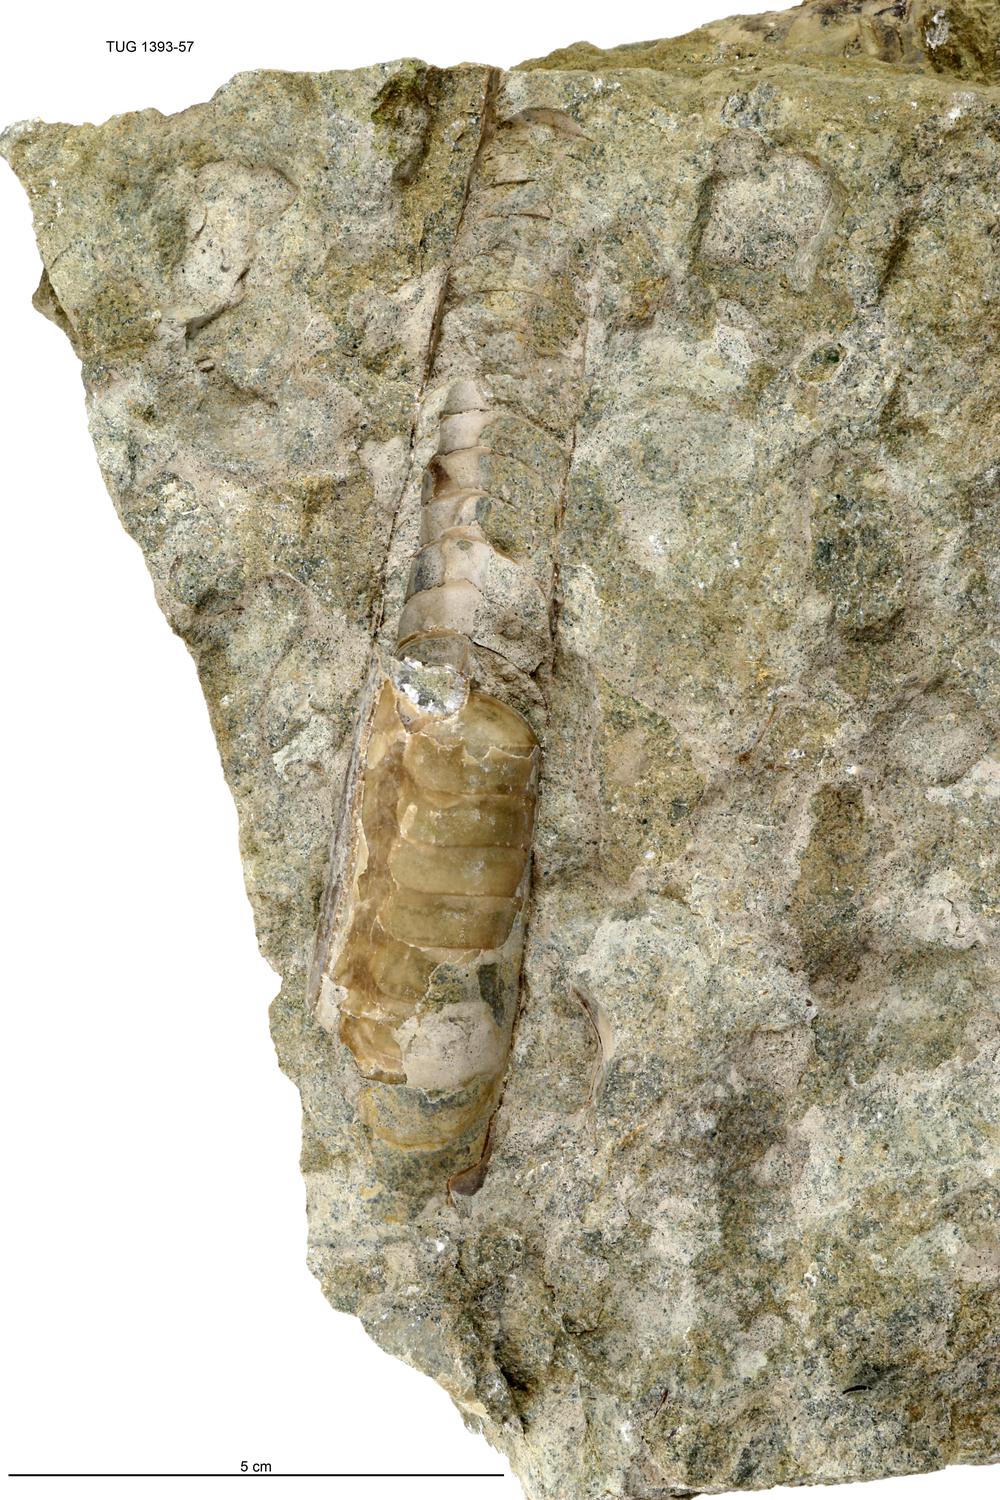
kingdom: Animalia
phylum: Mollusca
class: Cephalopoda
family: Endoceratidae
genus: Endoceras
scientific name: Endoceras
